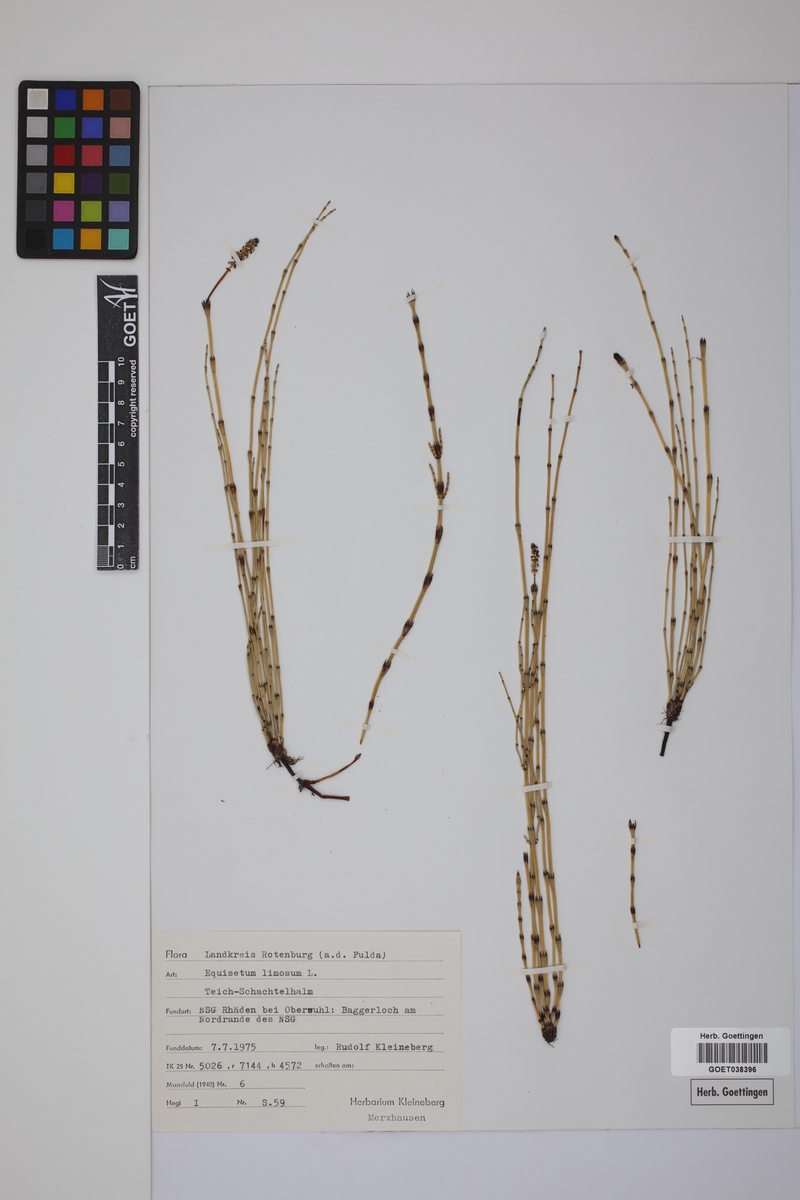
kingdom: Plantae
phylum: Tracheophyta
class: Polypodiopsida
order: Equisetales
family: Equisetaceae
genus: Equisetum
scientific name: Equisetum fluviatile
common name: Water horsetail
